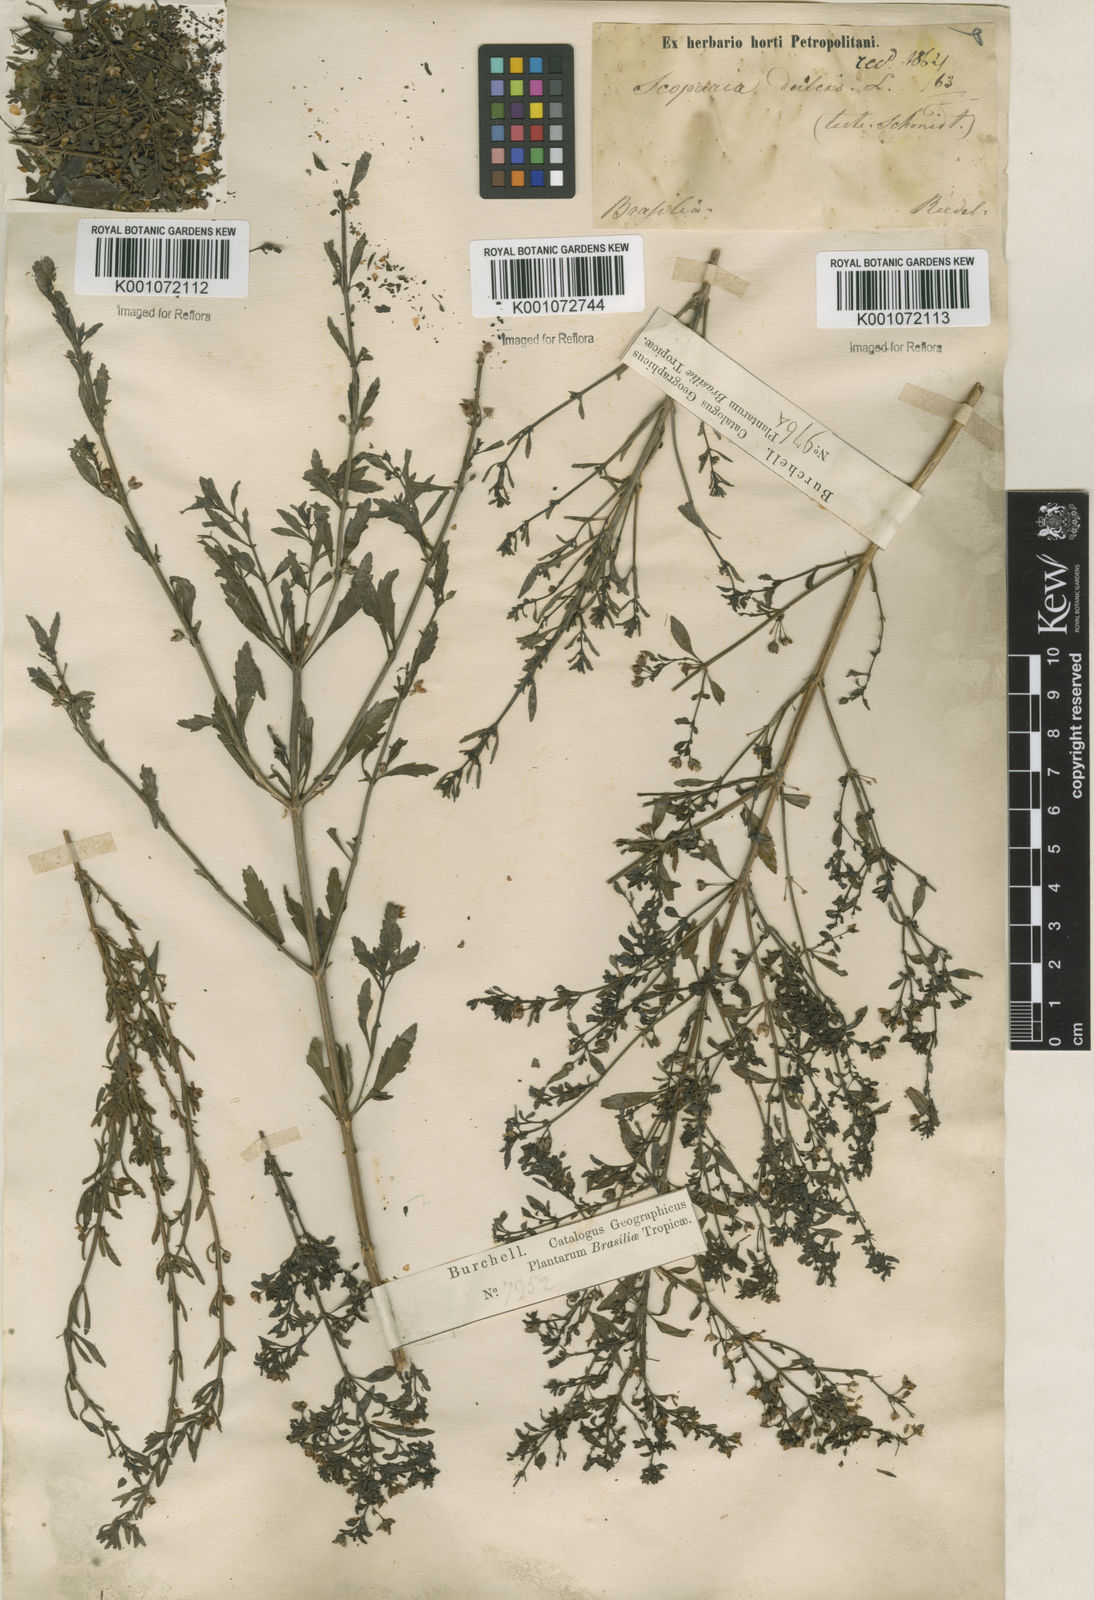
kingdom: Plantae
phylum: Tracheophyta
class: Magnoliopsida
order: Lamiales
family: Plantaginaceae
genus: Scoparia
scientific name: Scoparia dulcis
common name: Scoparia-weed
